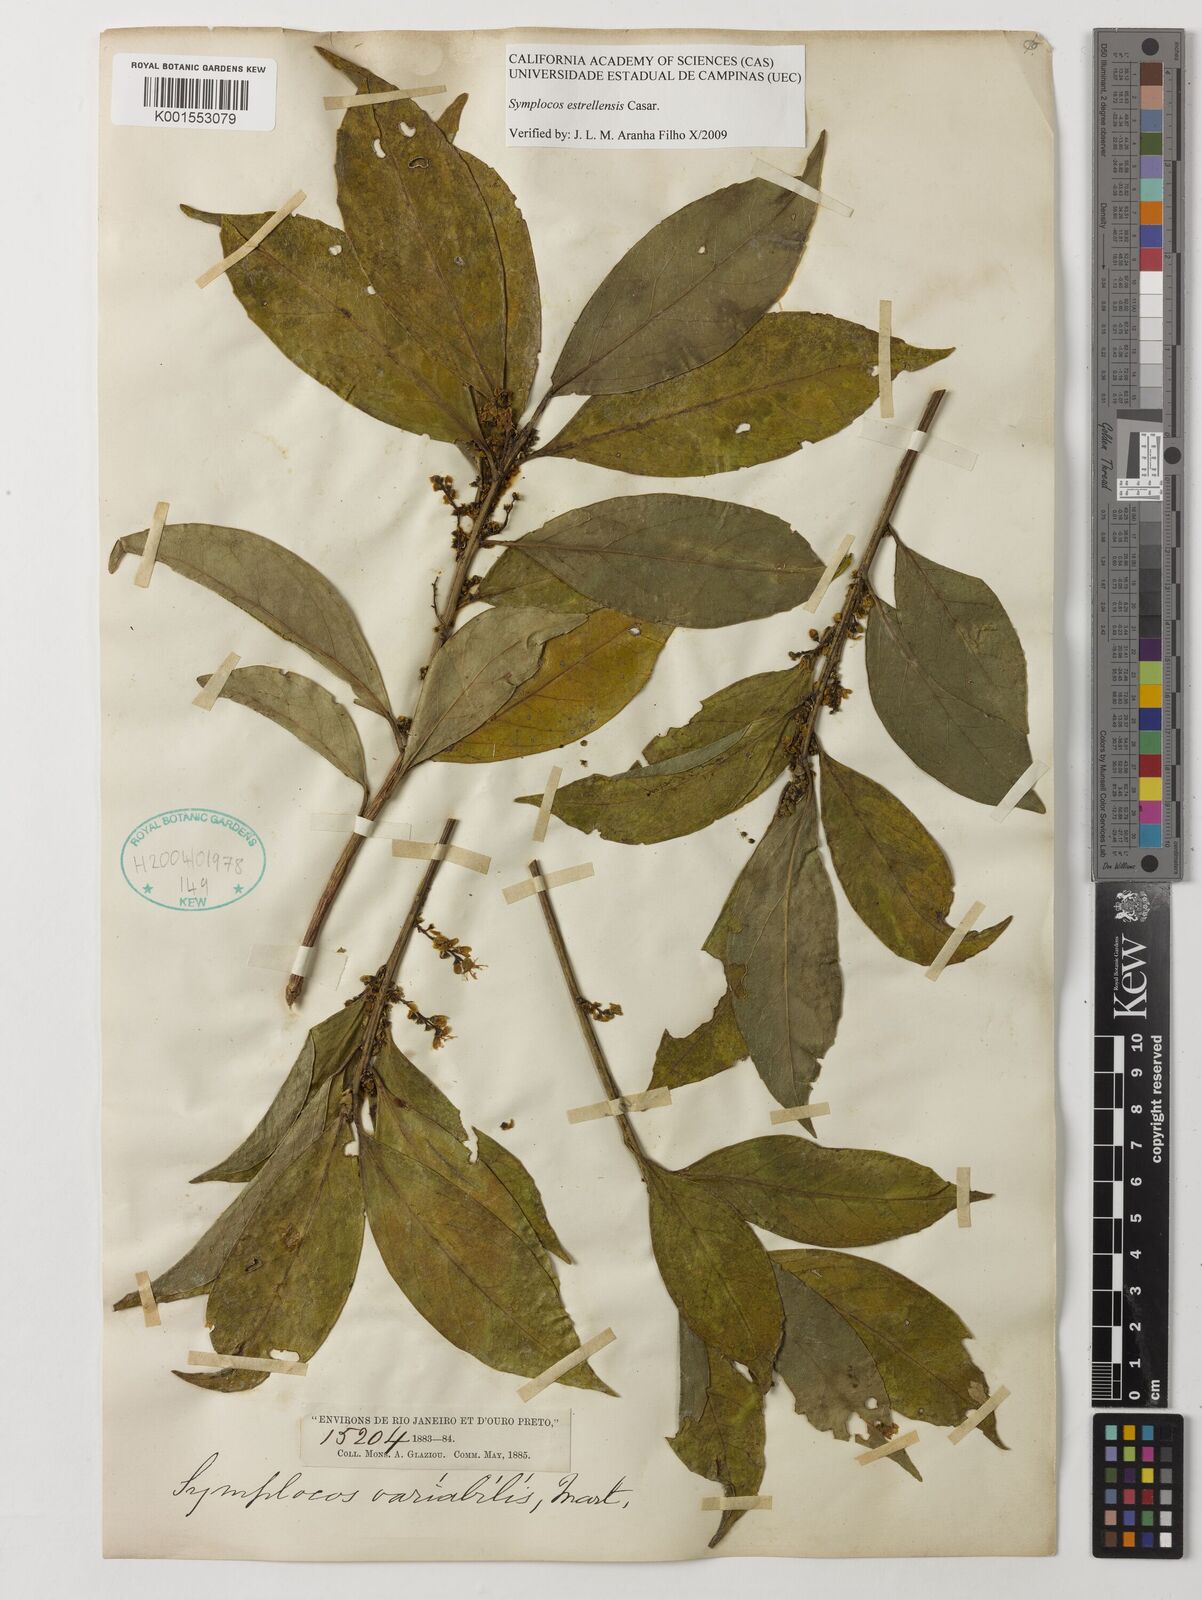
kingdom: Plantae
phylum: Tracheophyta
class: Magnoliopsida
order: Ericales
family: Symplocaceae
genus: Symplocos
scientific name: Symplocos estrellensis
